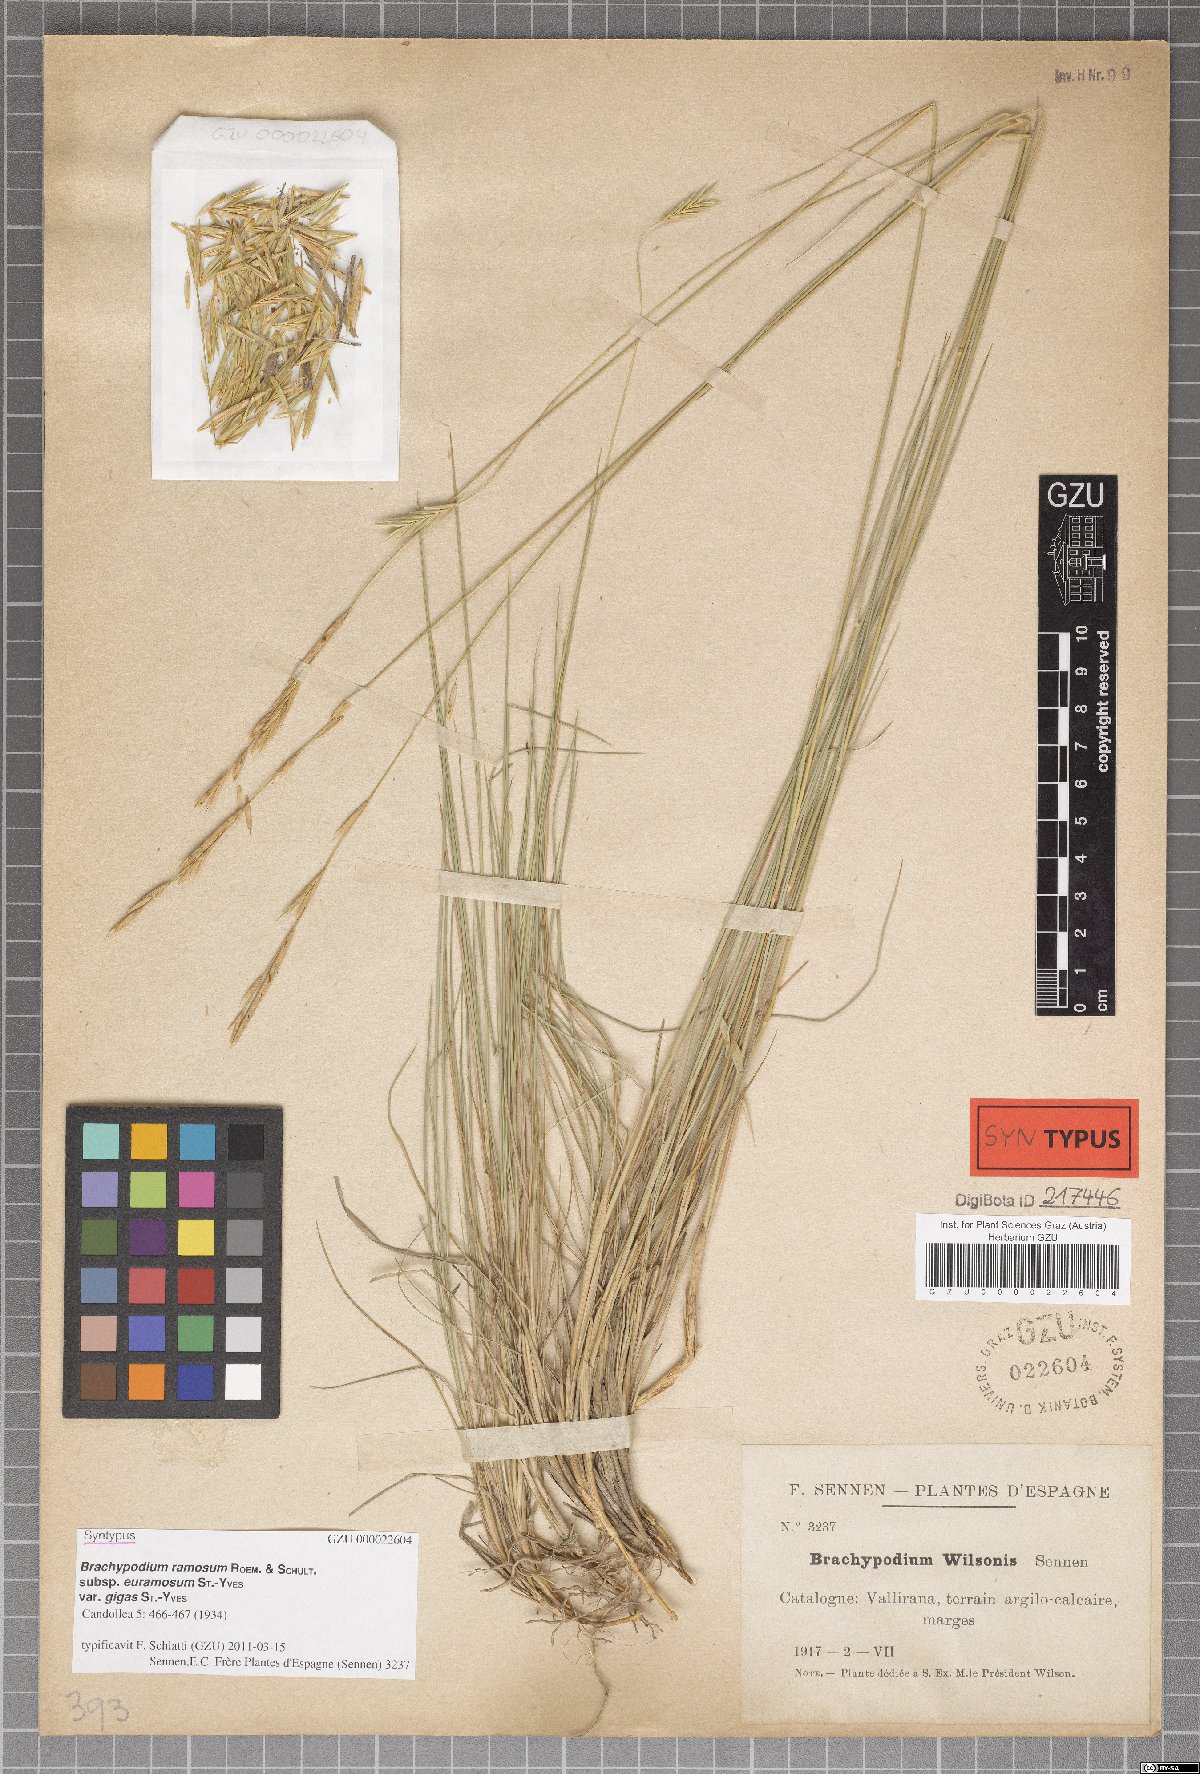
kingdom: Plantae
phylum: Tracheophyta
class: Liliopsida
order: Poales
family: Poaceae
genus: Brachypodium
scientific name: Brachypodium phoenicoides
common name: Thinleaf false brome
